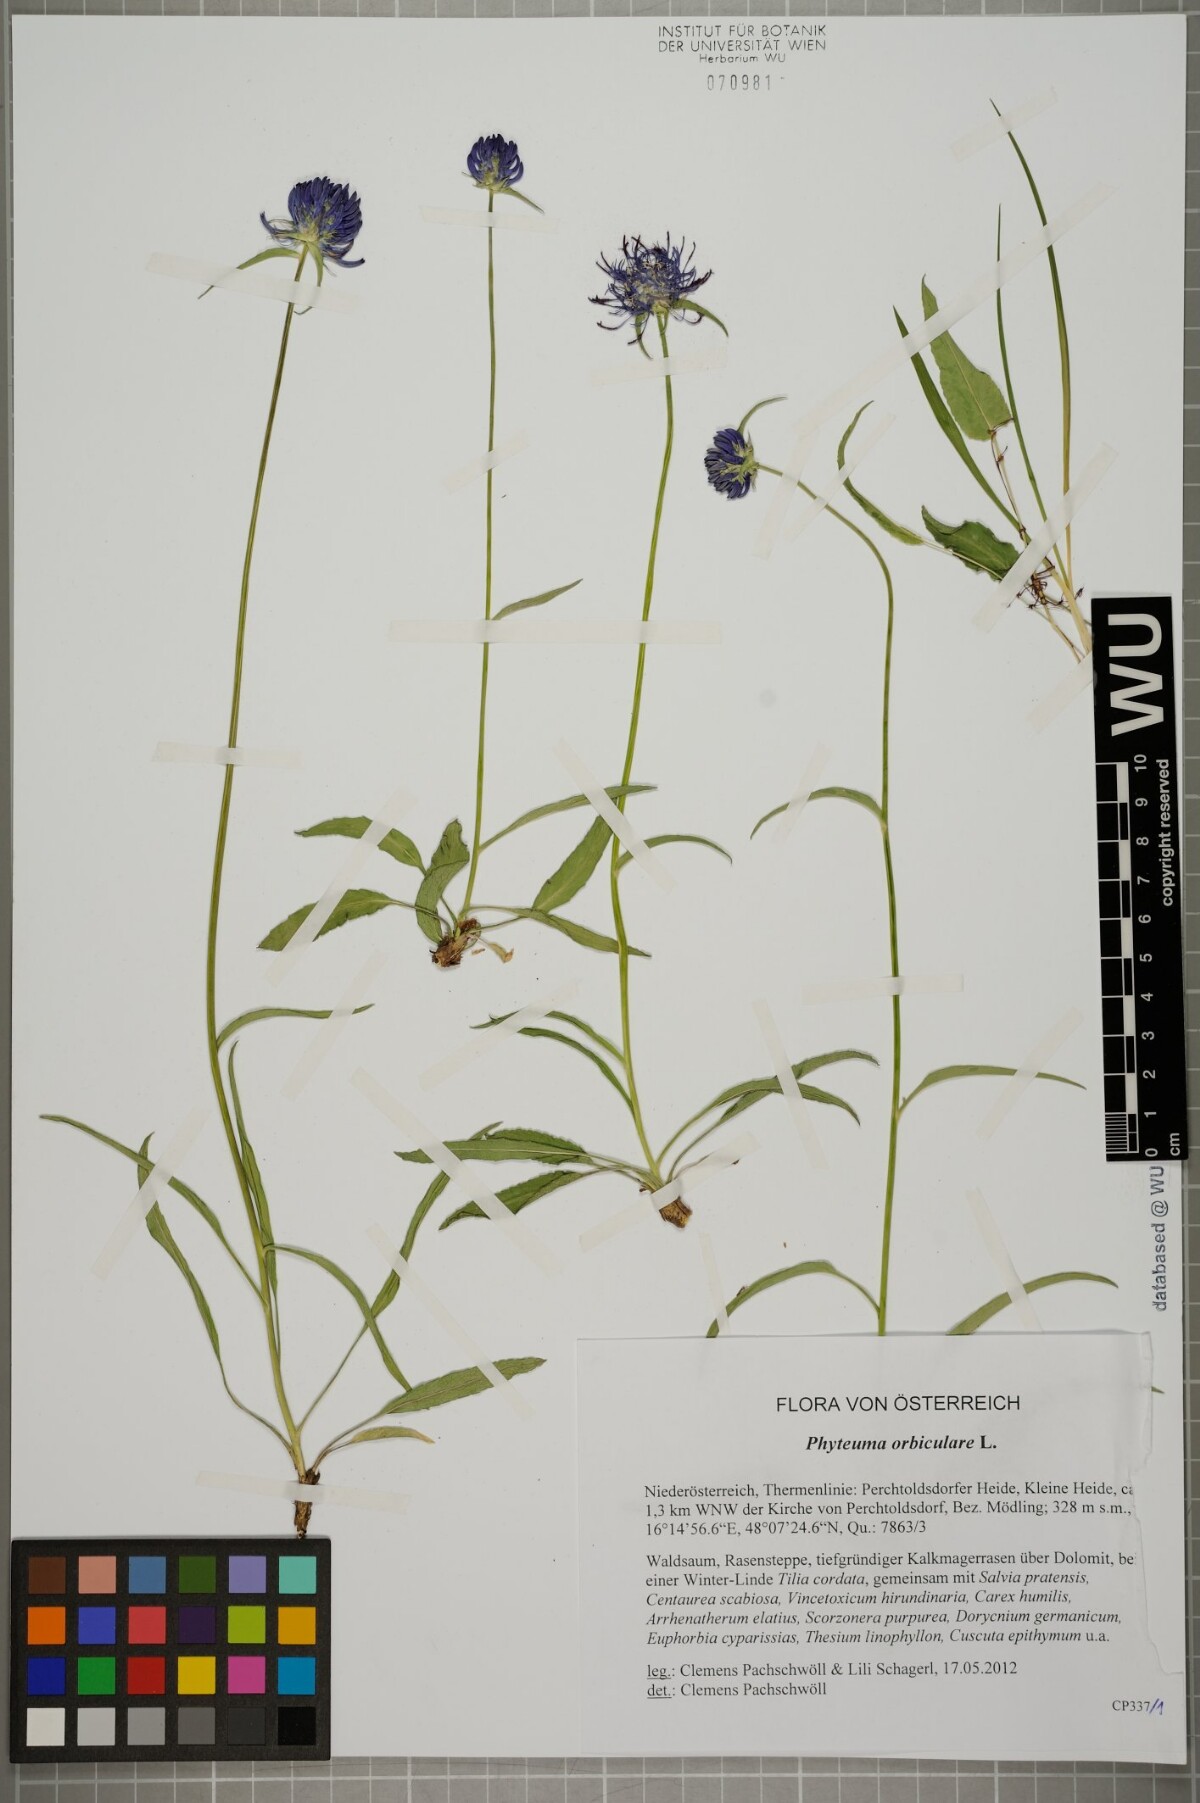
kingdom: Plantae
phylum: Tracheophyta
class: Magnoliopsida
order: Asterales
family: Campanulaceae
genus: Phyteuma
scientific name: Phyteuma orbiculare
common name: Round-headed rampion
